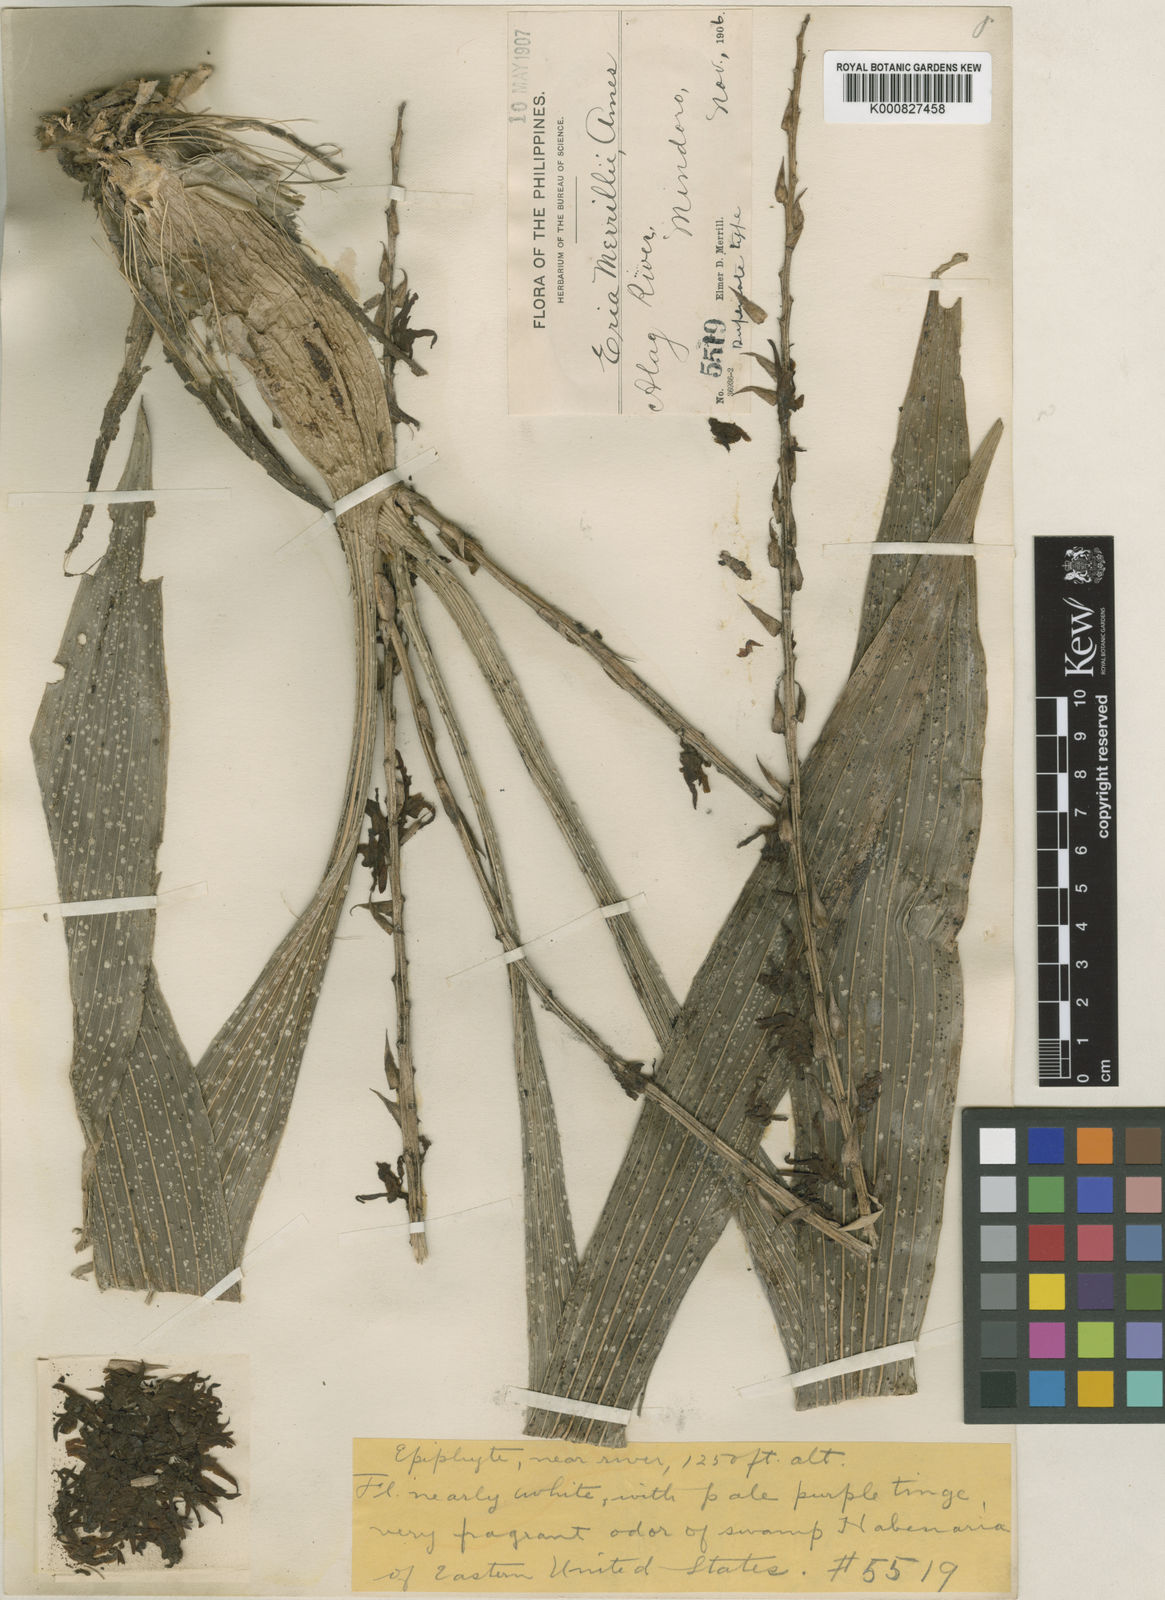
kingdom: Plantae
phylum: Tracheophyta
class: Liliopsida
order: Asparagales
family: Orchidaceae
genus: Pinalia
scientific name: Pinalia ovata
